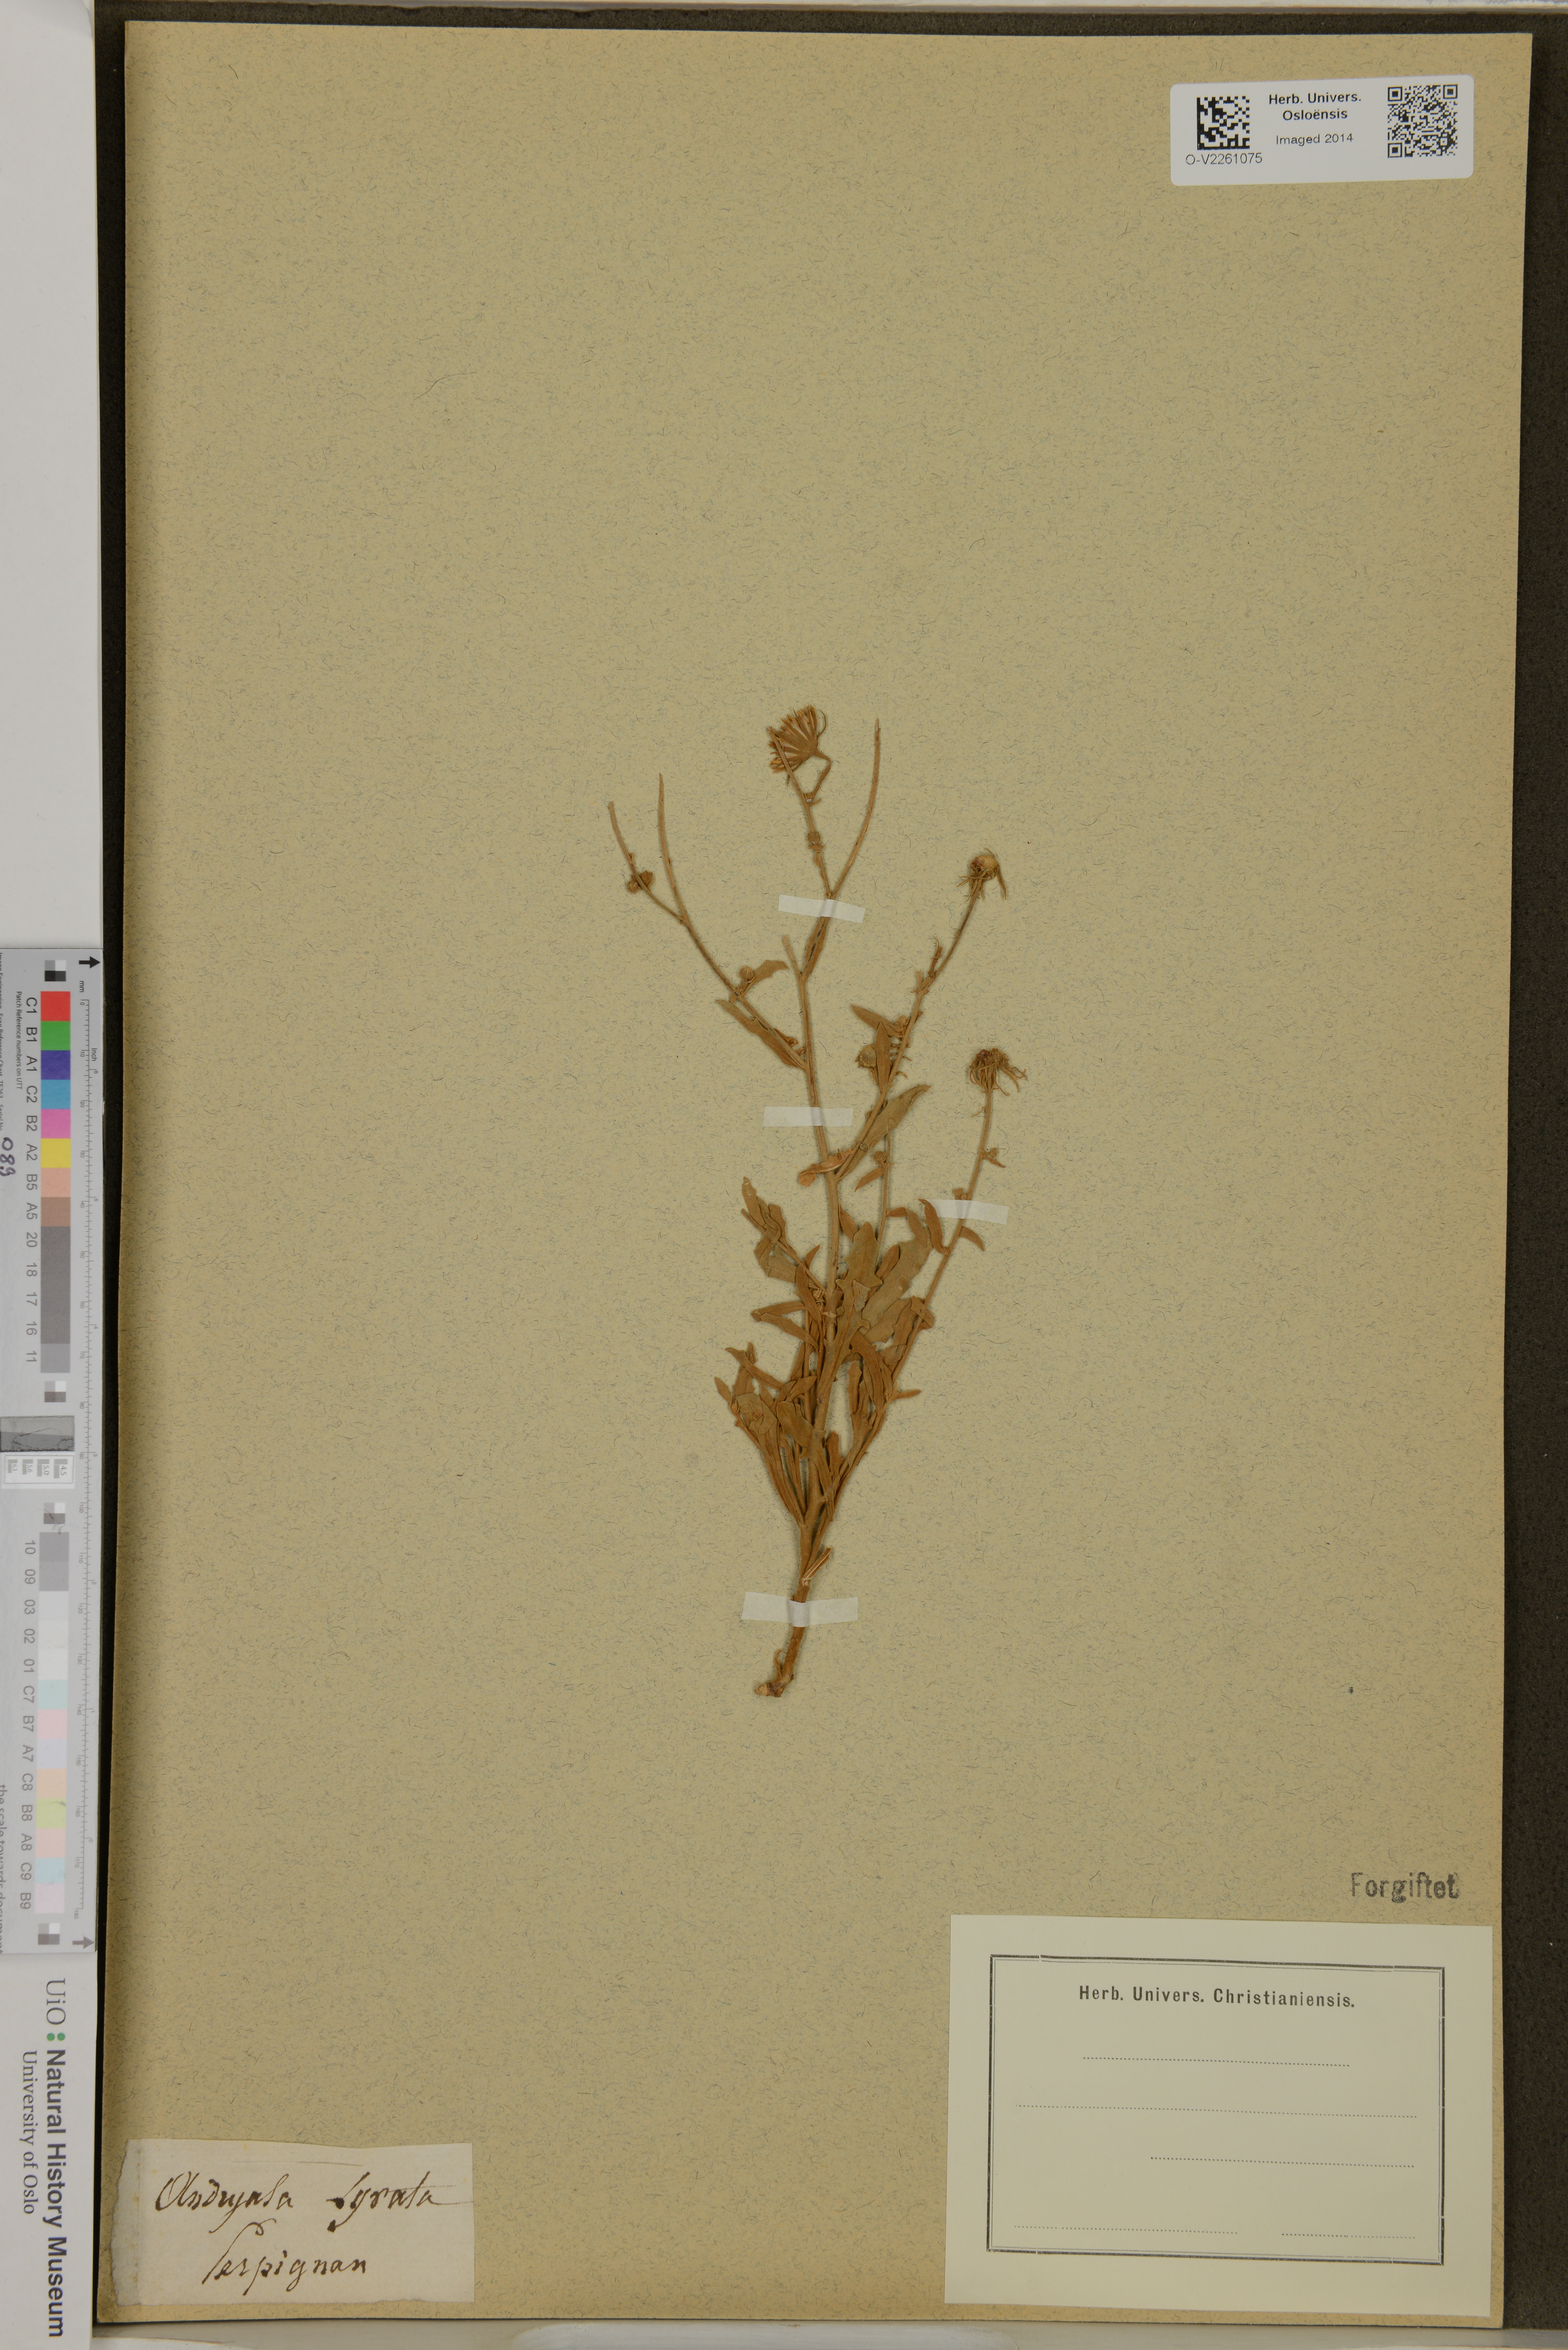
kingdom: Plantae
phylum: Tracheophyta
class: Magnoliopsida
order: Asterales
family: Asteraceae
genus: Andryala
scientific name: Andryala ragusina
